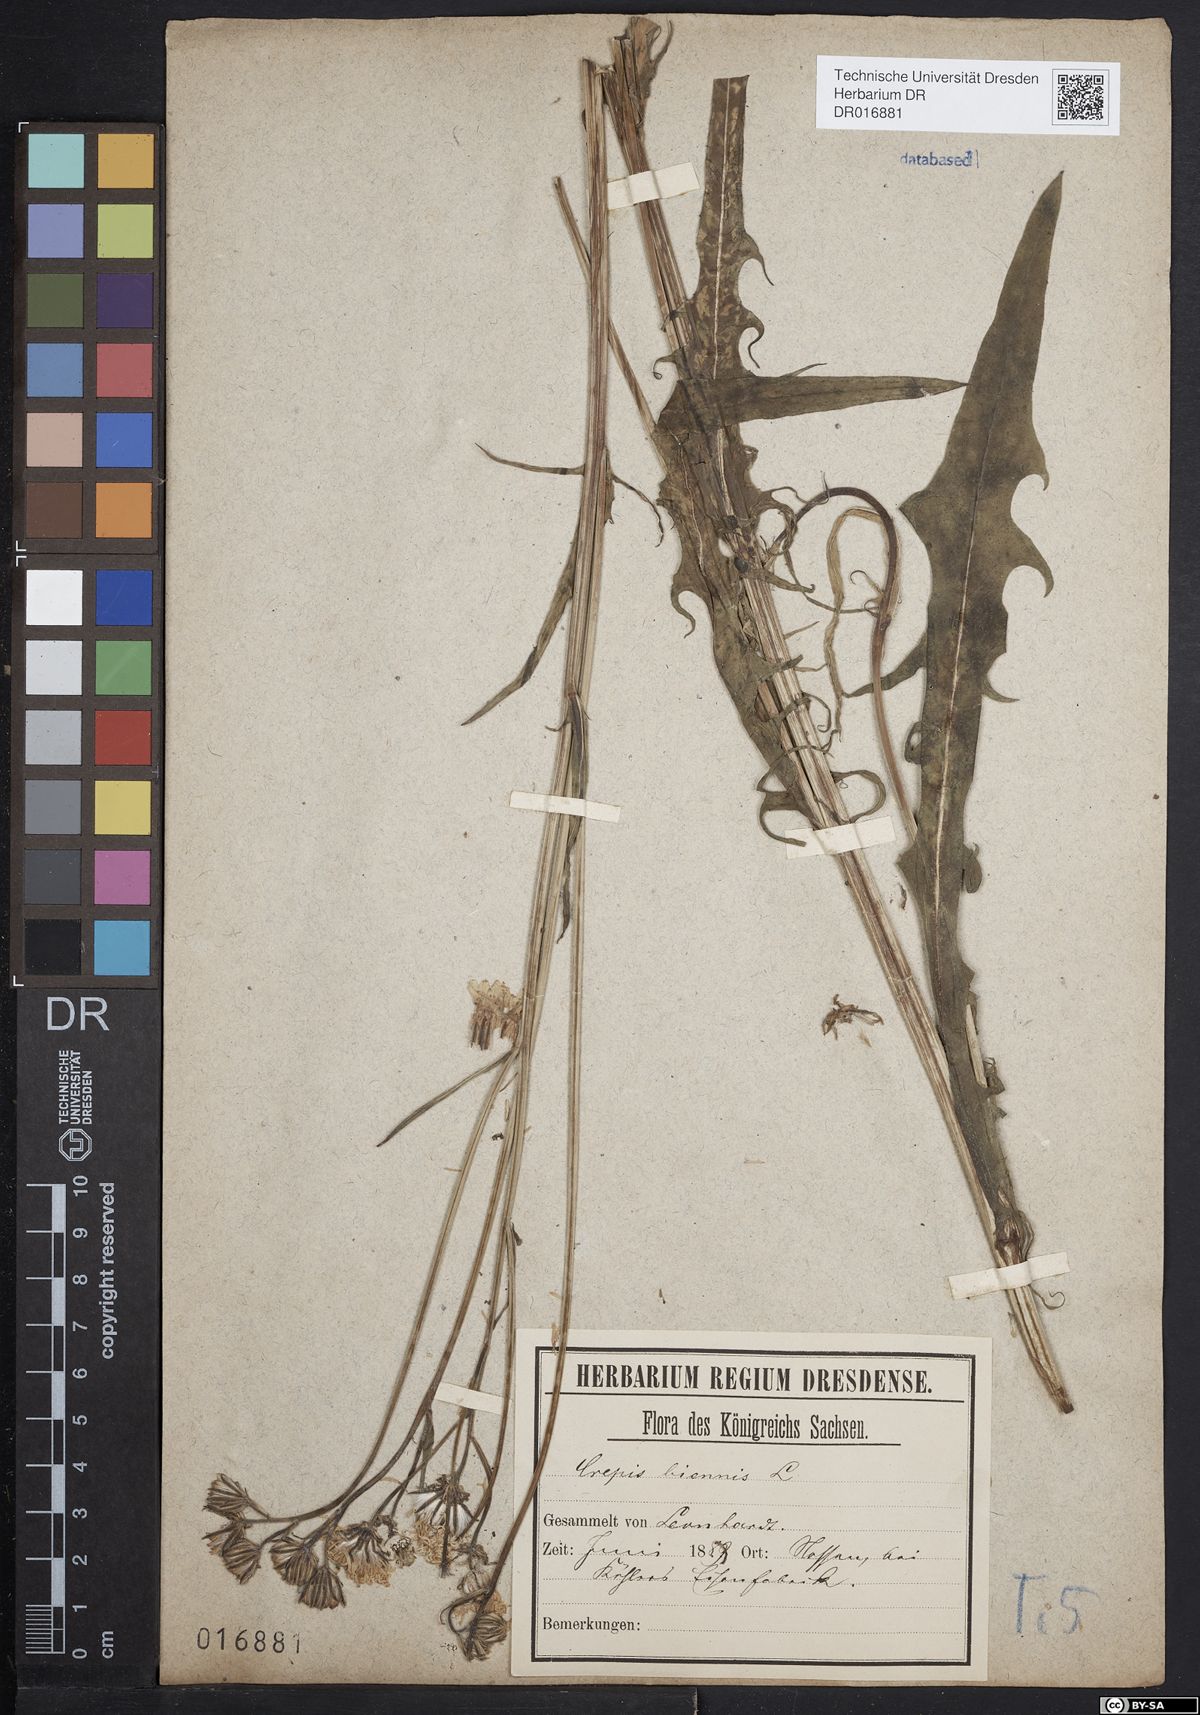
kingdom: Plantae
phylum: Tracheophyta
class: Magnoliopsida
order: Asterales
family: Asteraceae
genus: Crepis
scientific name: Crepis biennis
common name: Rough hawk's-beard
